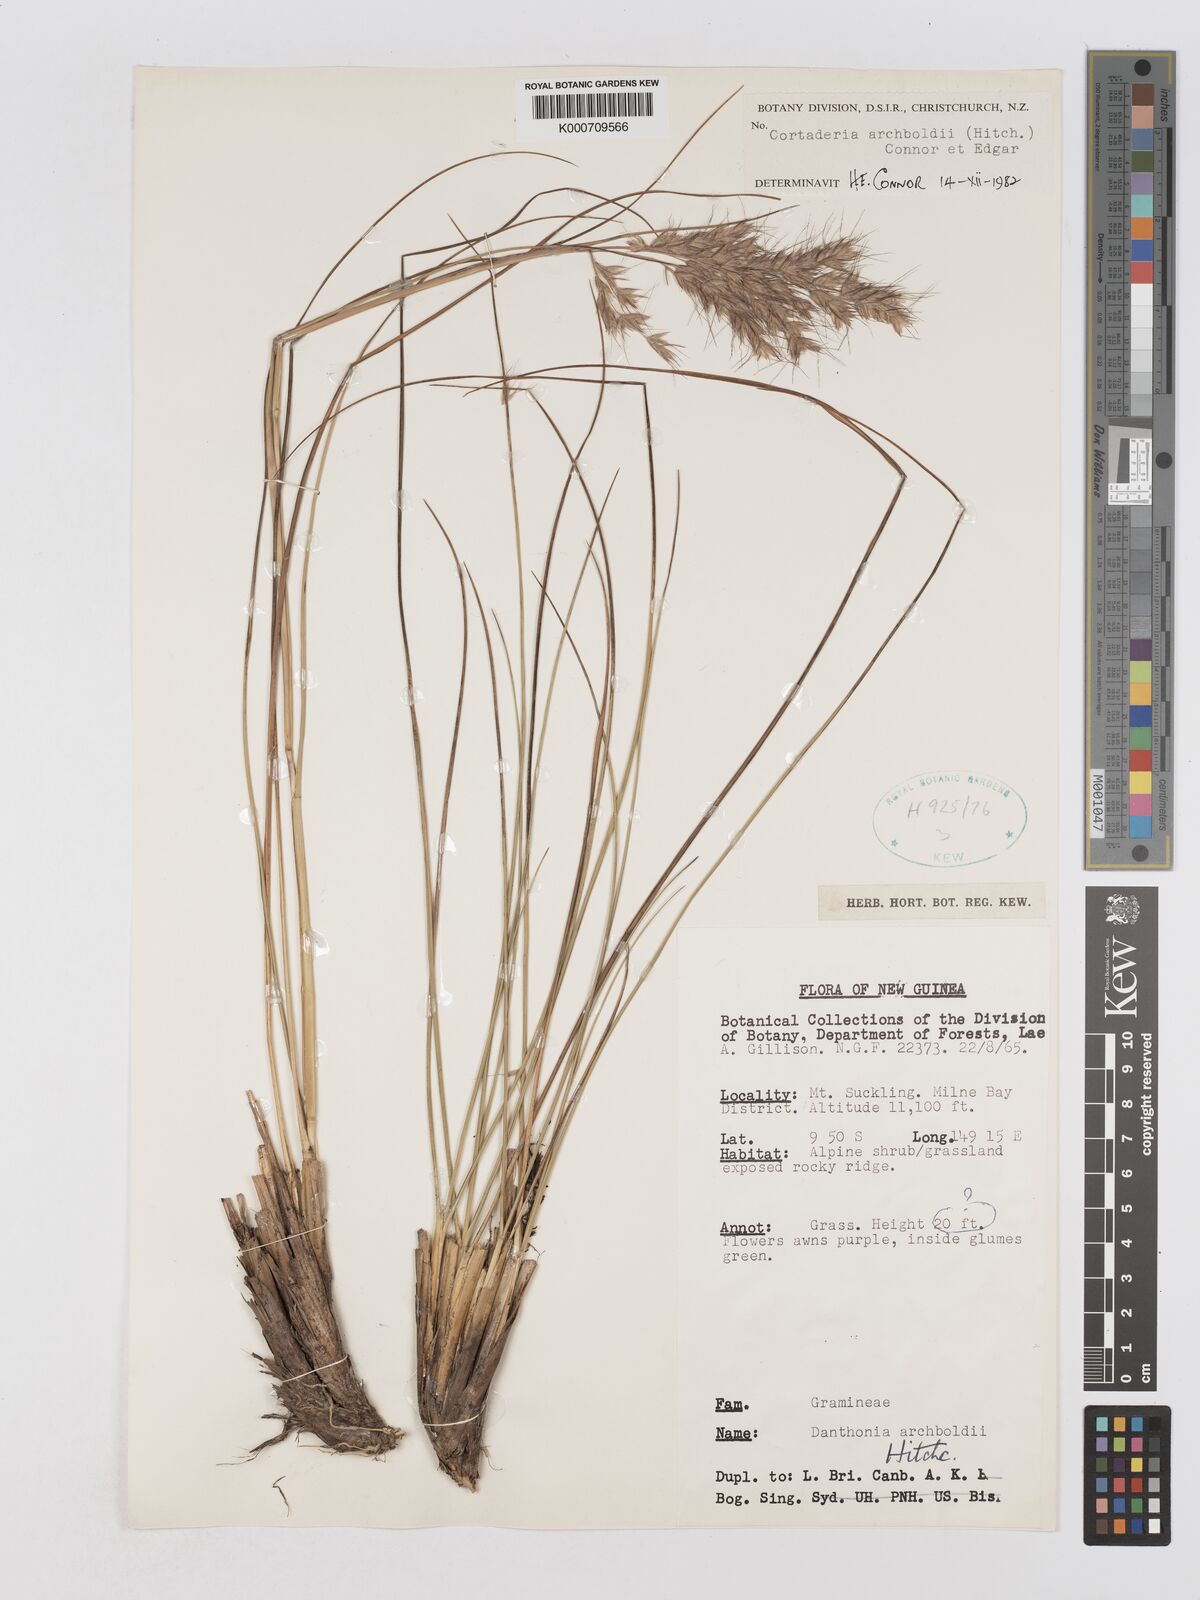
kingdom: Plantae
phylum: Tracheophyta
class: Liliopsida
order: Poales
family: Poaceae
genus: Chimaerochloa
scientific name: Chimaerochloa archboldii
